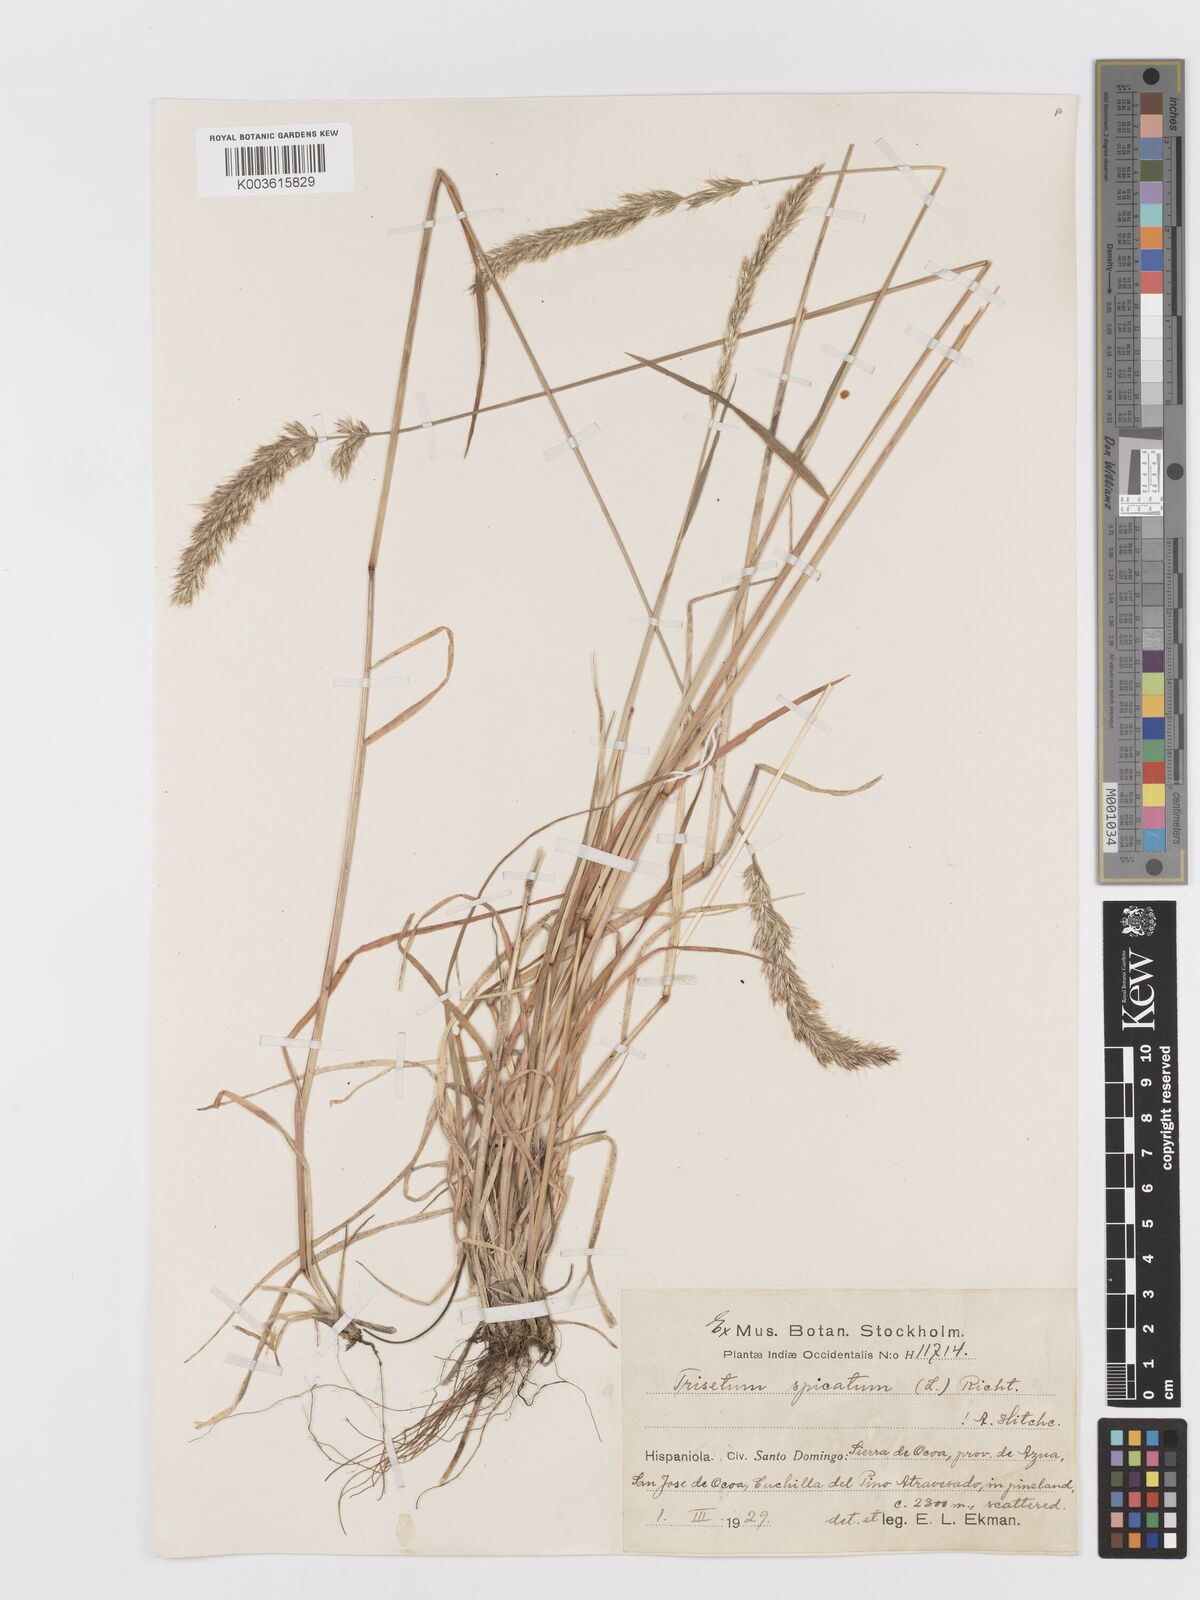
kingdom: Plantae
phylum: Tracheophyta
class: Liliopsida
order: Poales
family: Poaceae
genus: Koeleria
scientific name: Koeleria spicata
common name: Mountain trisetum
